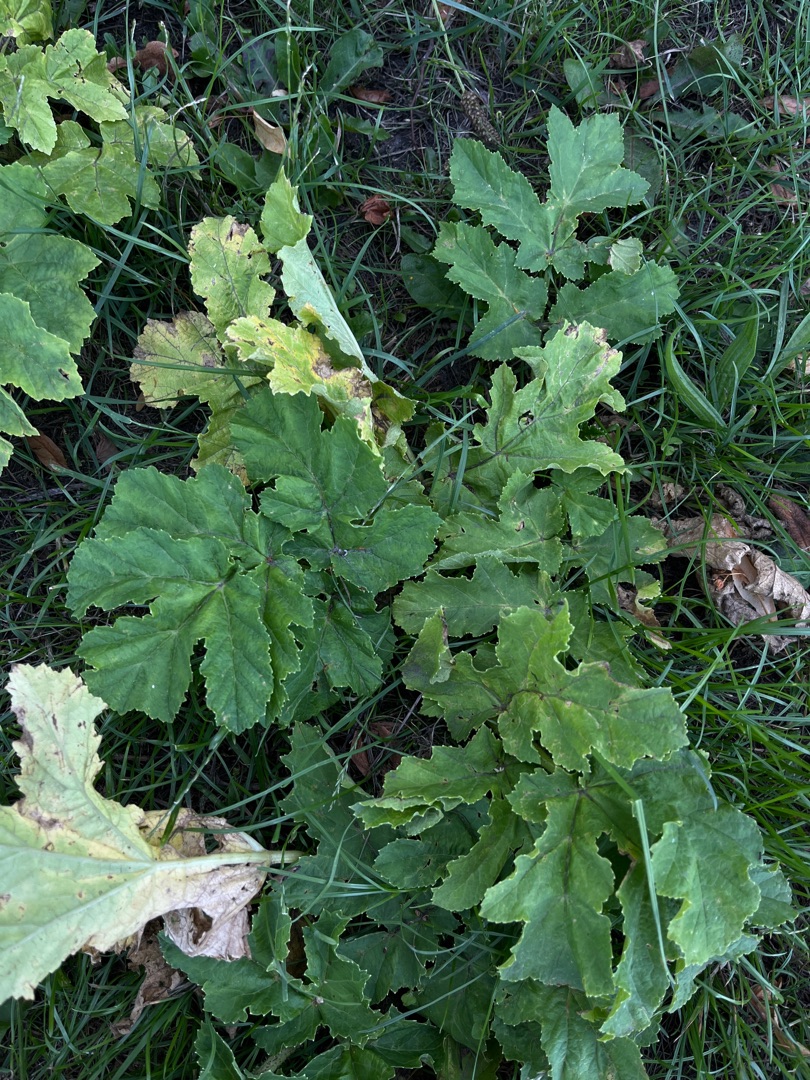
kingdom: Plantae
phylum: Tracheophyta
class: Magnoliopsida
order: Apiales
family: Apiaceae
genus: Heracleum
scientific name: Heracleum sphondylium
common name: Almindelig bjørneklo
